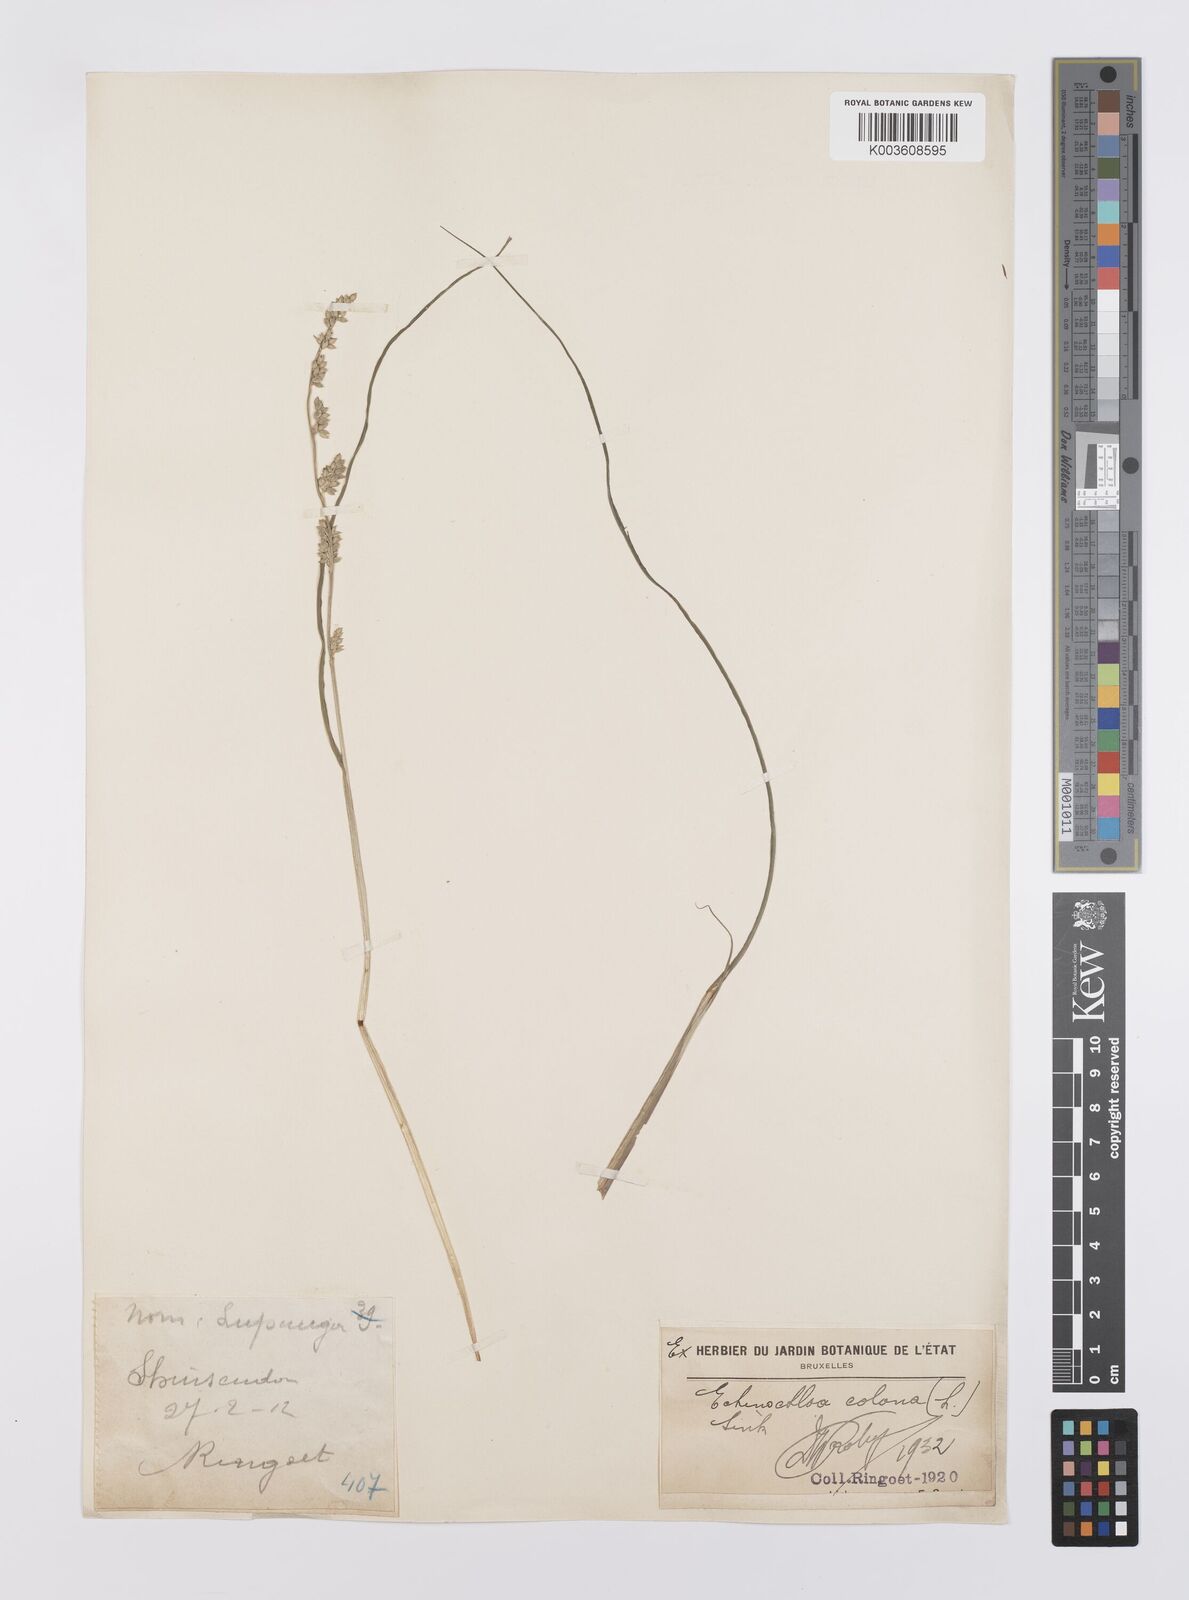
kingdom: Plantae
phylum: Tracheophyta
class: Liliopsida
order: Poales
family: Poaceae
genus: Echinochloa
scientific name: Echinochloa colonum
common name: Jungle rice
